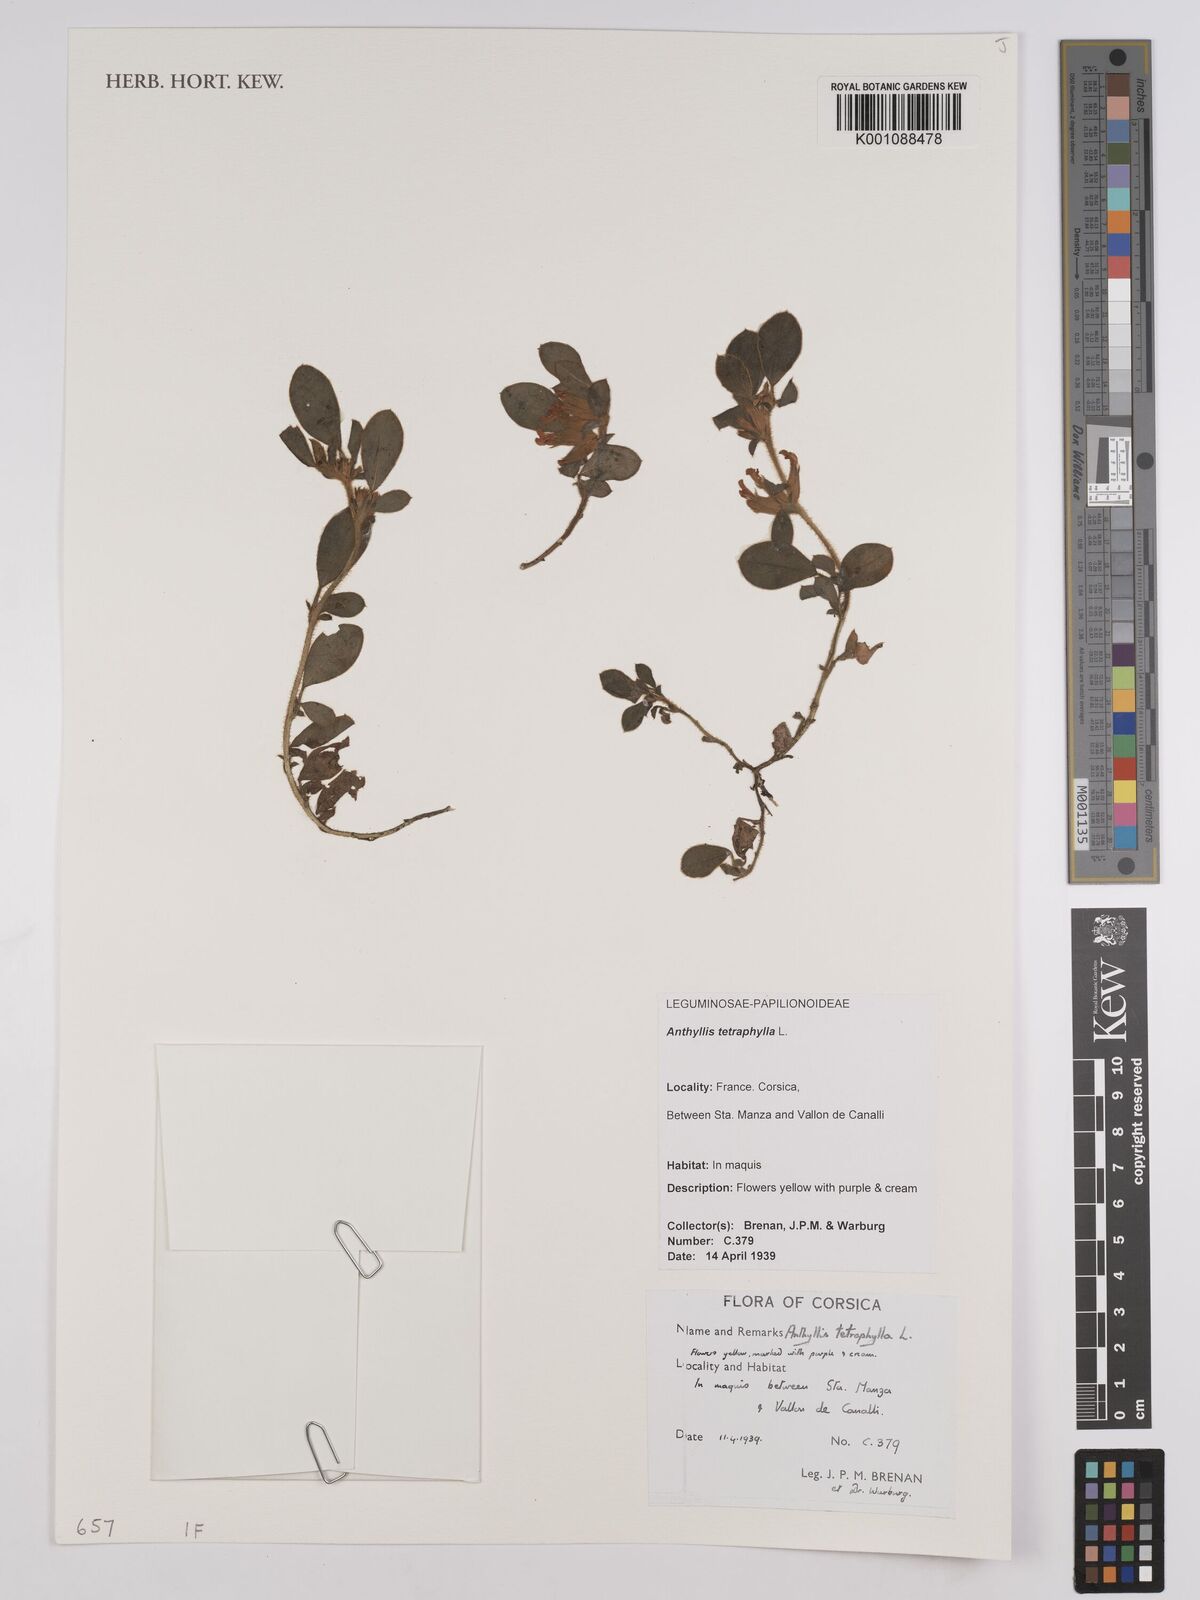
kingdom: Plantae
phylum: Tracheophyta
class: Magnoliopsida
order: Fabales
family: Fabaceae
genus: Tripodion
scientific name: Tripodion tetraphyllum
